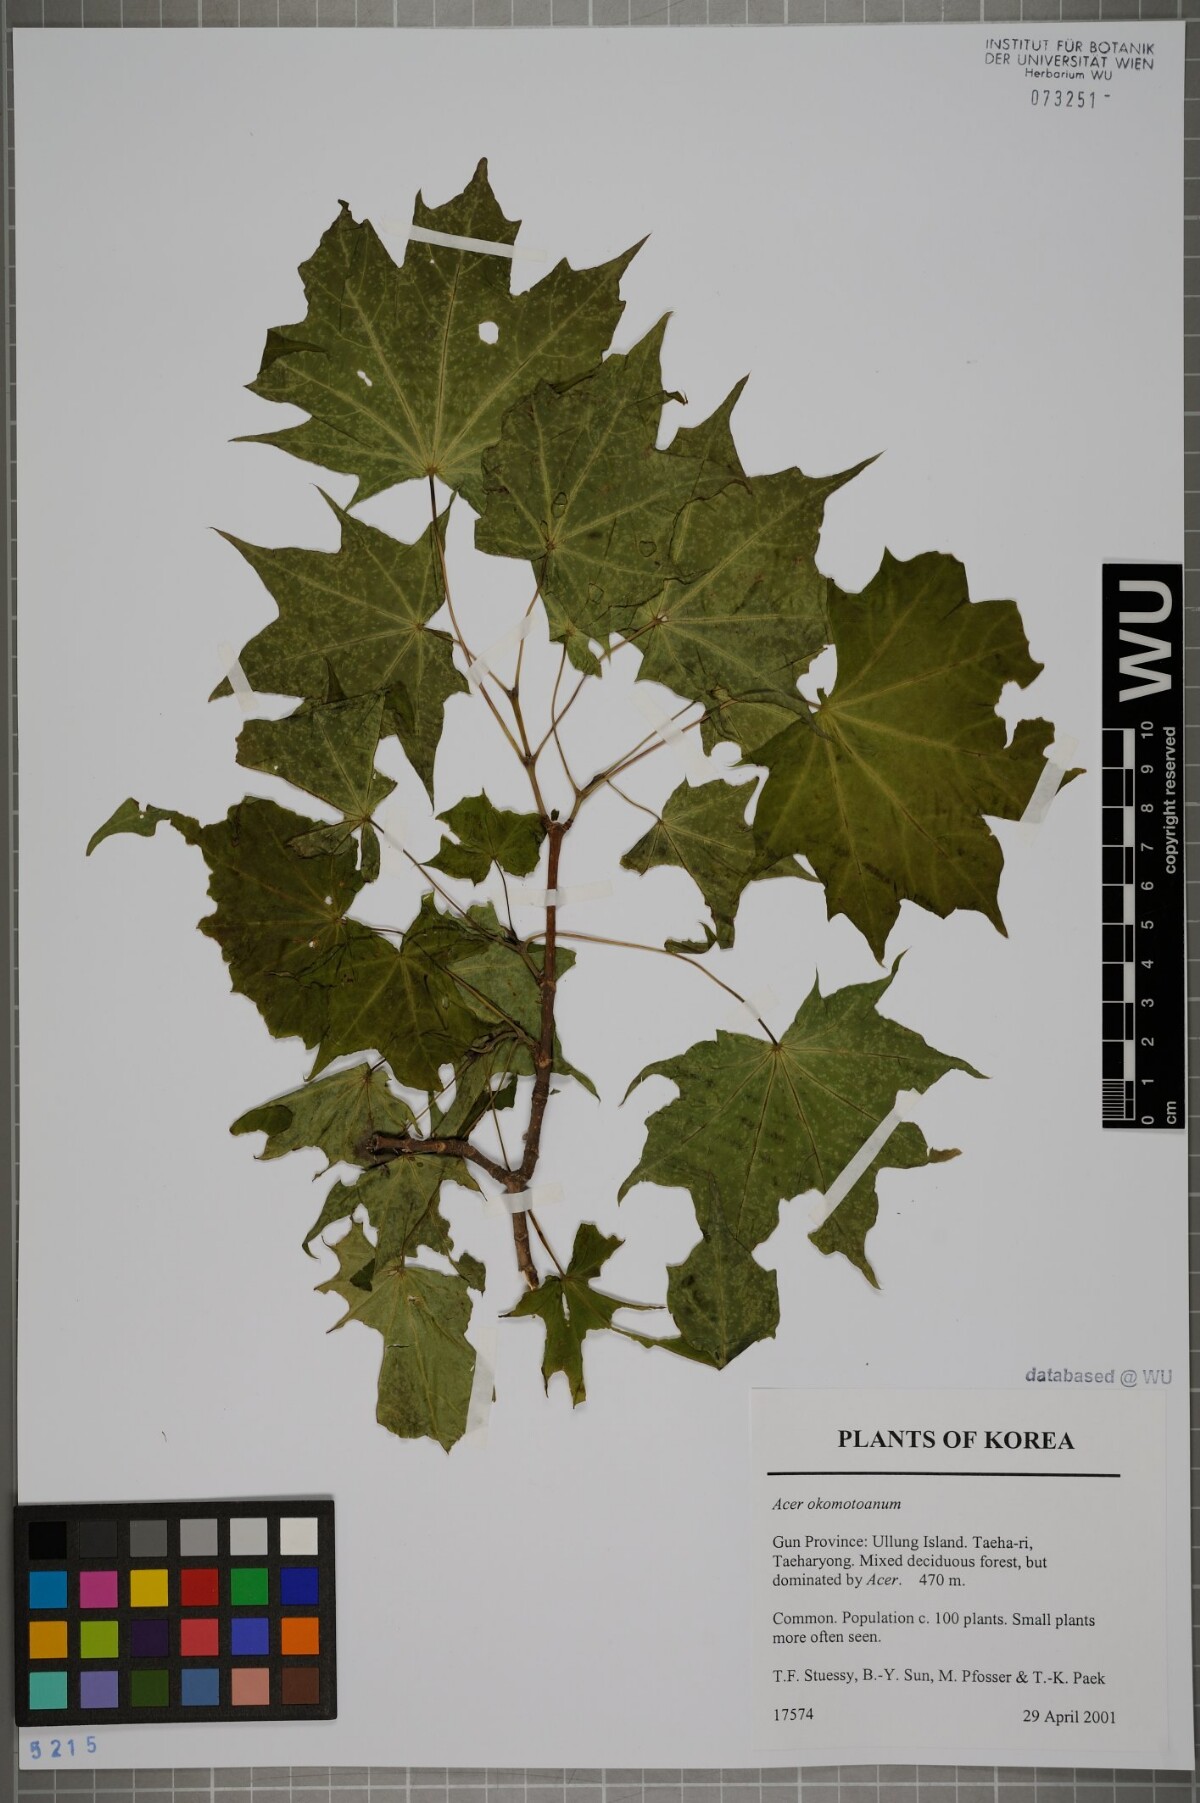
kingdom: Plantae
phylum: Tracheophyta
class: Magnoliopsida
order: Sapindales
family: Sapindaceae
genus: Acer
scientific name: Acer pictum
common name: The painted maple
